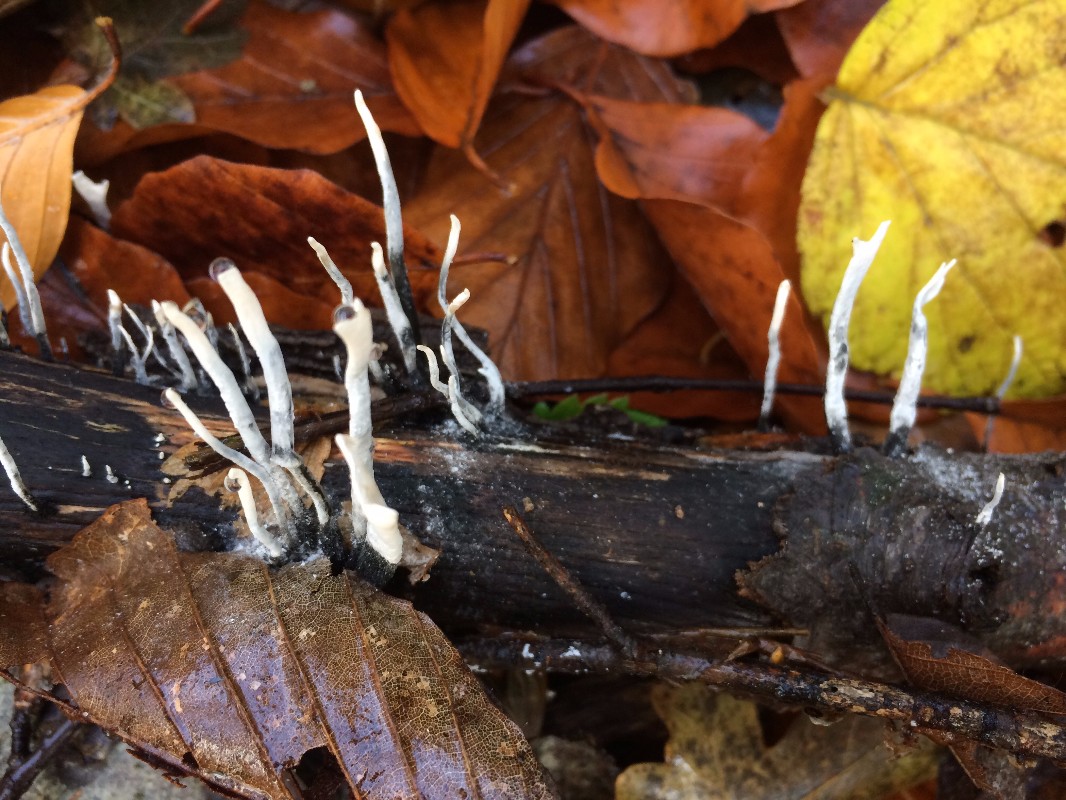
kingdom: Fungi
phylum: Ascomycota
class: Sordariomycetes
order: Xylariales
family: Xylariaceae
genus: Xylaria
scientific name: Xylaria hypoxylon
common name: grenet stødsvamp
